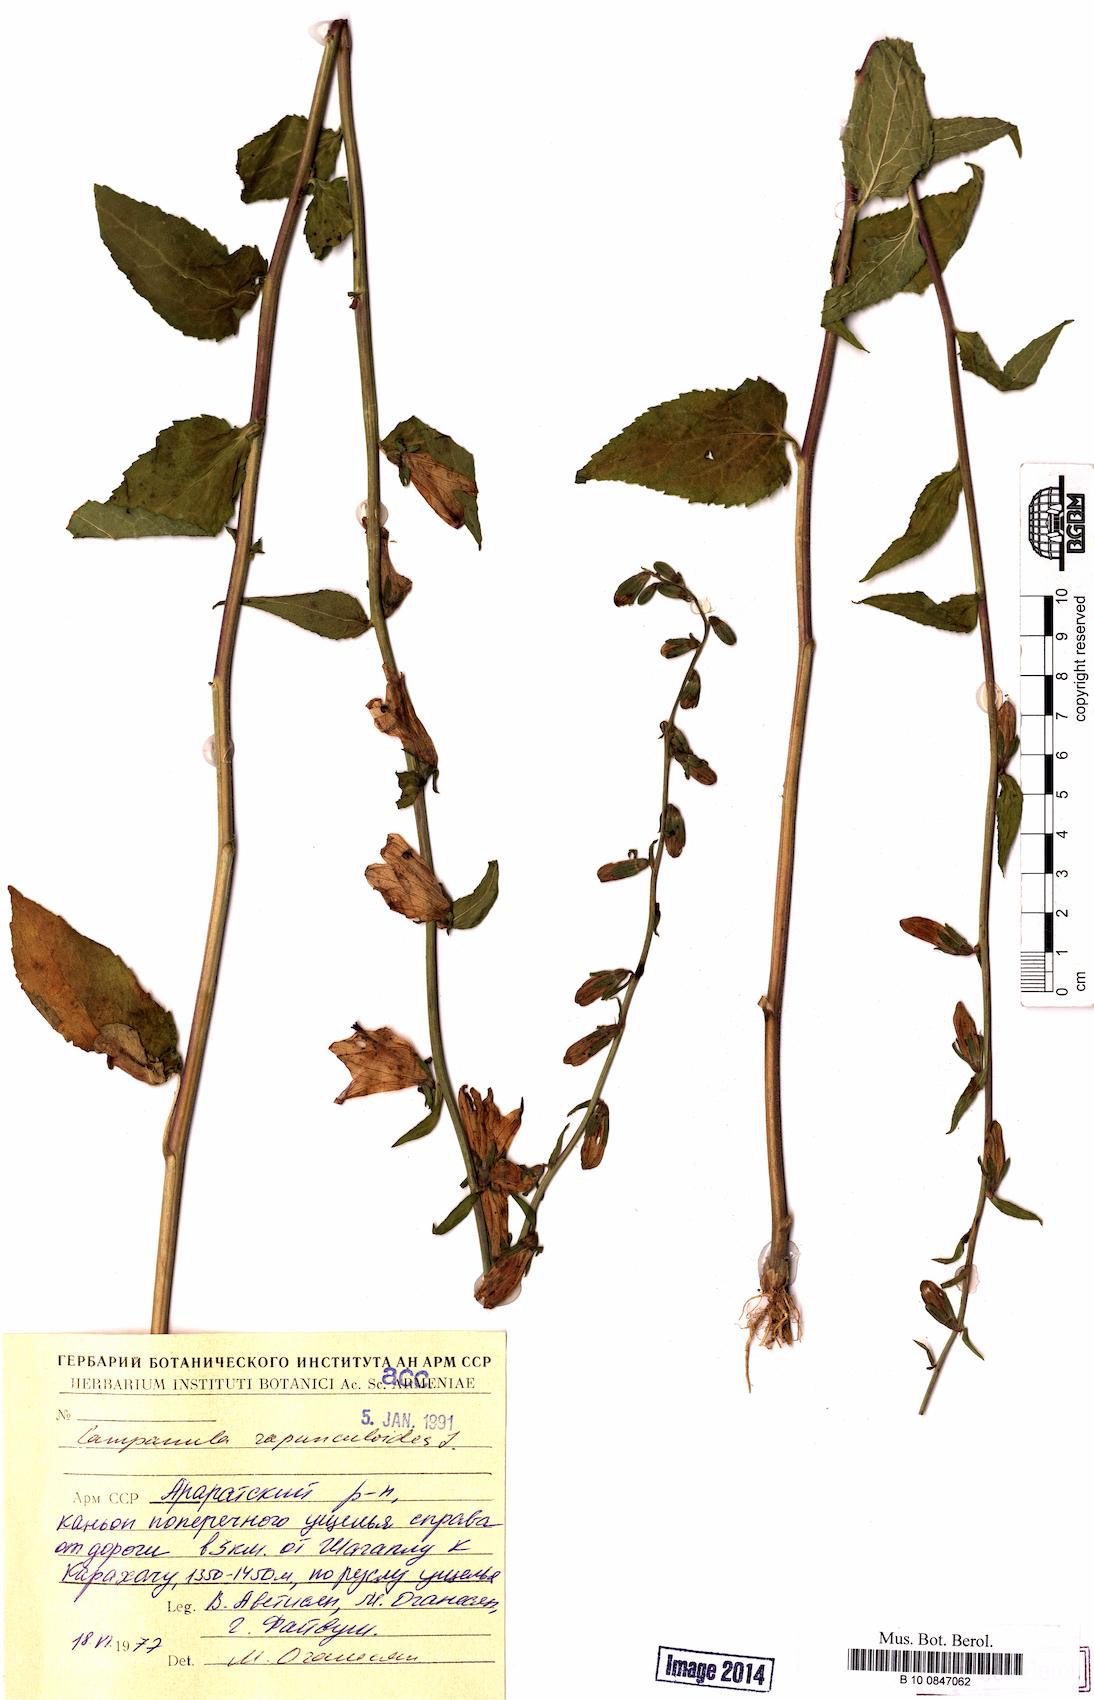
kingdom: Plantae
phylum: Tracheophyta
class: Magnoliopsida
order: Asterales
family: Campanulaceae
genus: Campanula
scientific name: Campanula rapunculoides
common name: Creeping bellflower
